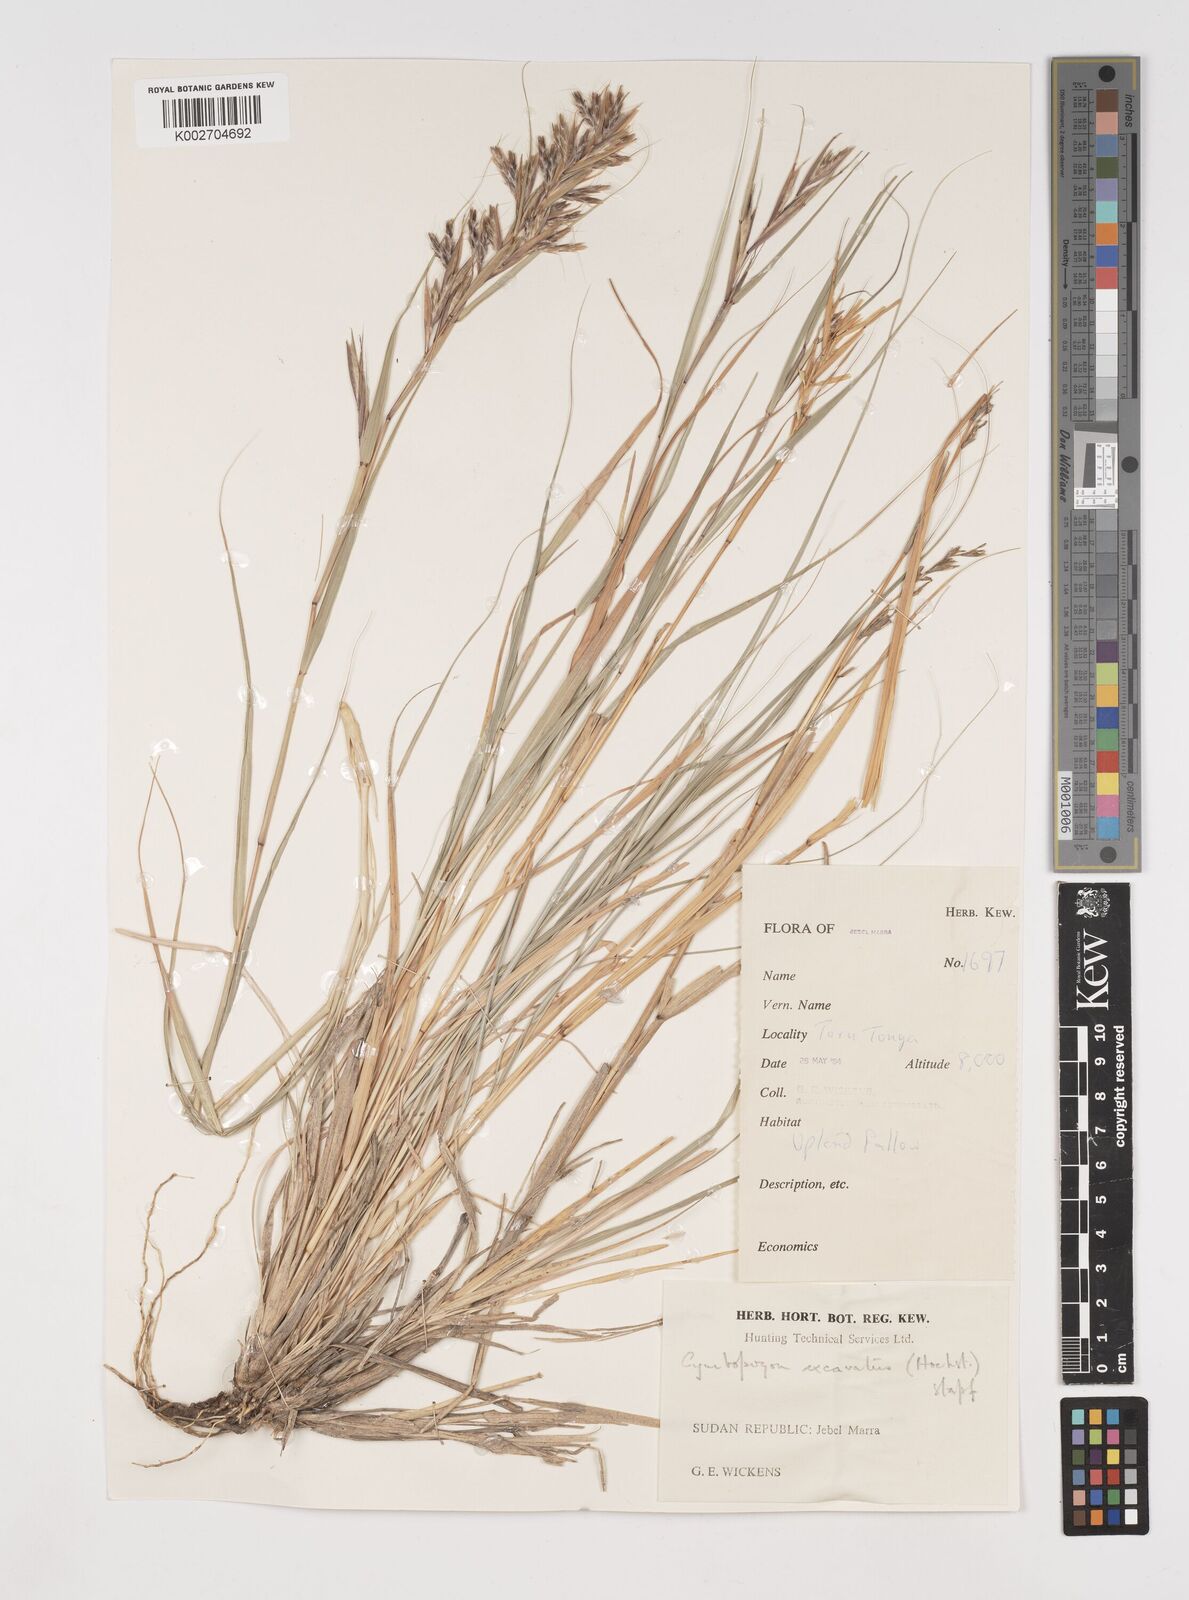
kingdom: Plantae
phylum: Tracheophyta
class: Liliopsida
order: Poales
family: Poaceae
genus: Cymbopogon
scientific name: Cymbopogon caesius
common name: Kachi grass
